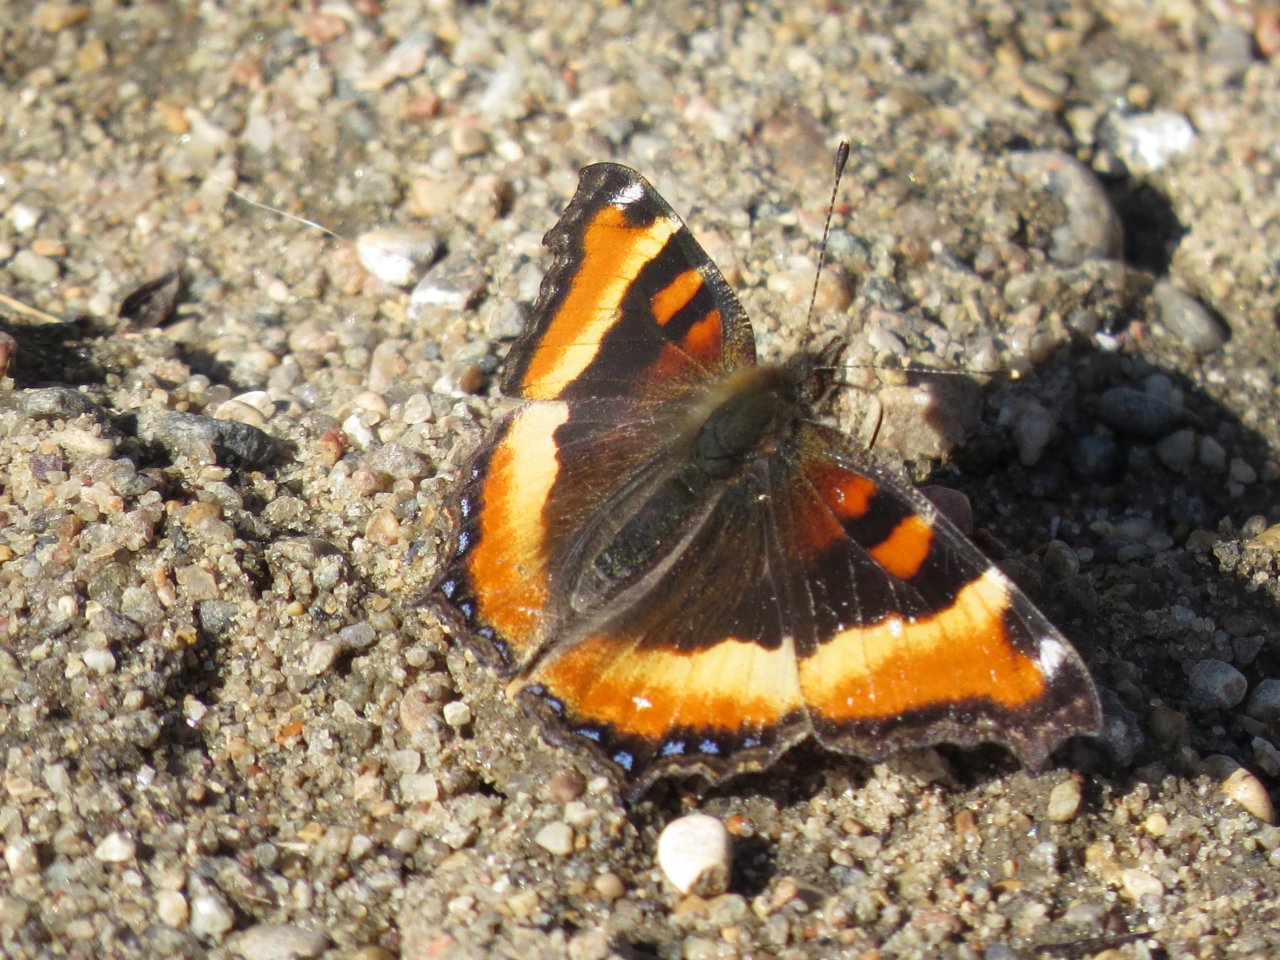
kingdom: Animalia
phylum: Arthropoda
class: Insecta
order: Lepidoptera
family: Nymphalidae
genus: Aglais
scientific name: Aglais milberti
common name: Milbert's Tortoiseshell
